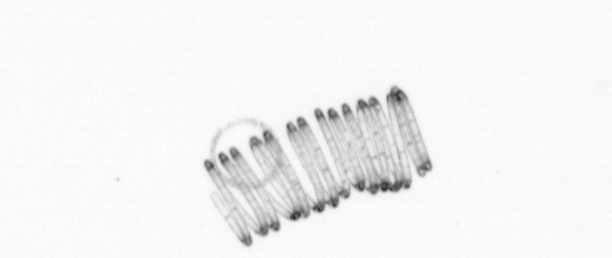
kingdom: Chromista
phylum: Ochrophyta
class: Bacillariophyceae
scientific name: Bacillariophyceae
